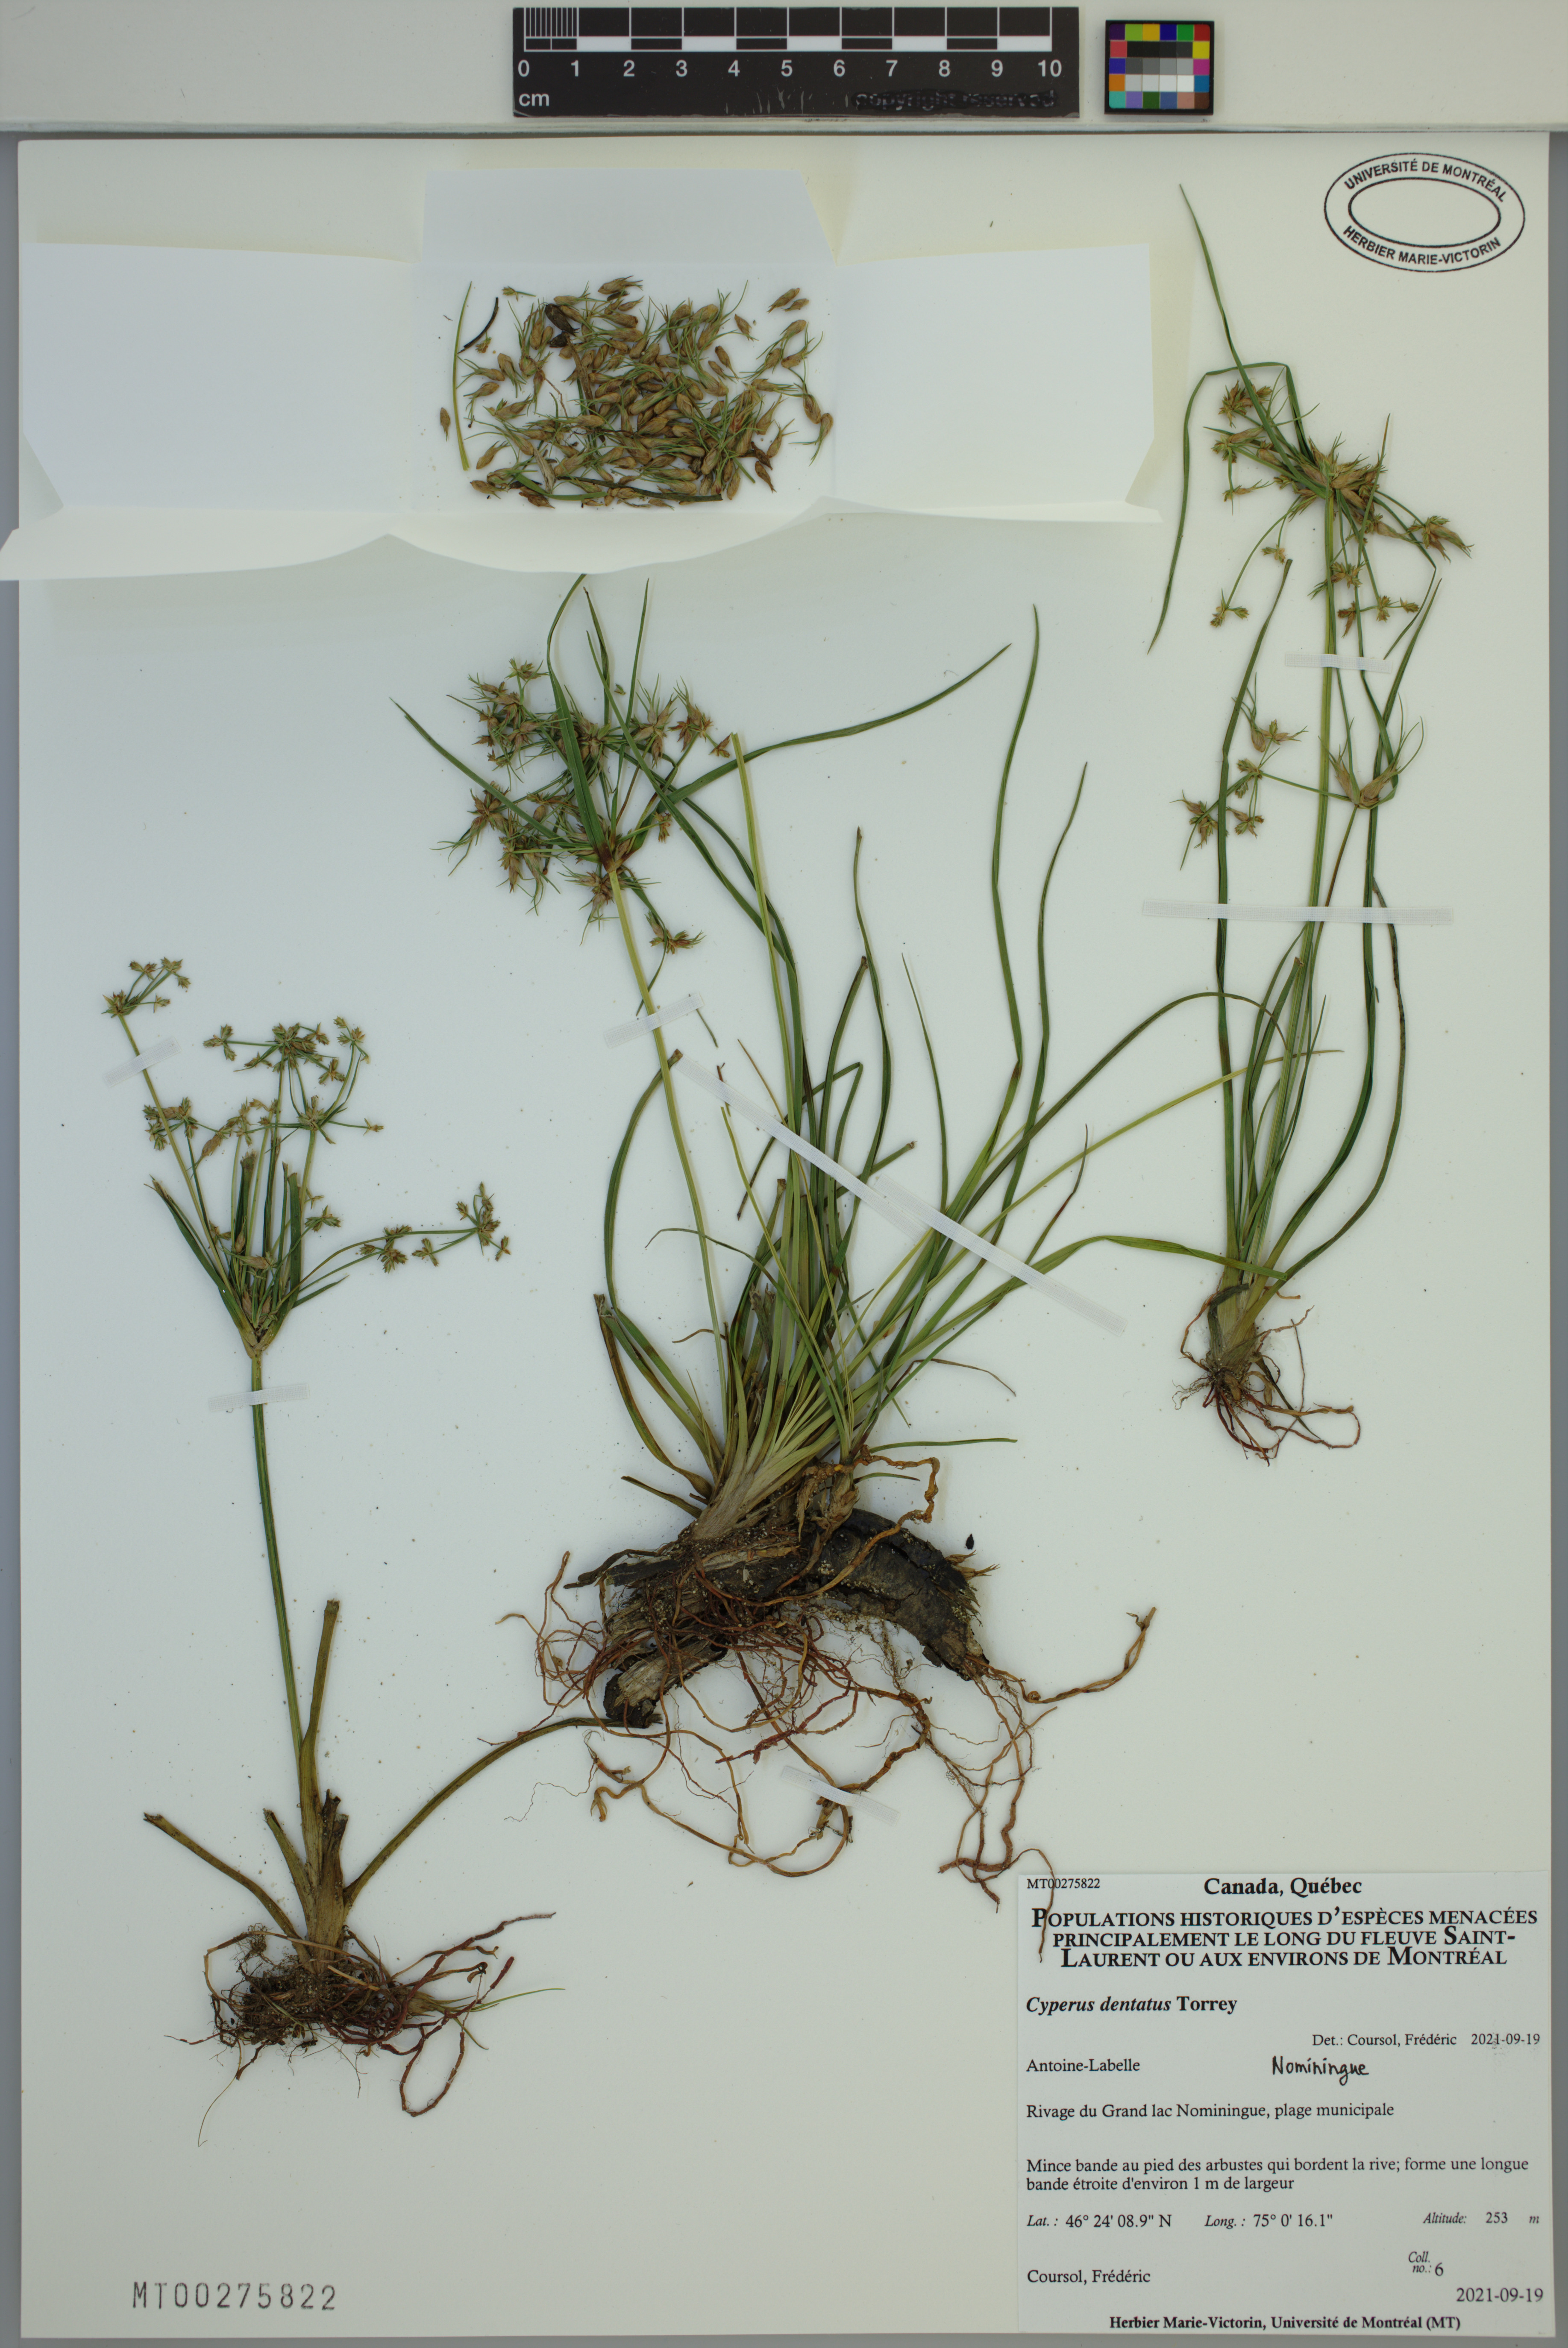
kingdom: Plantae
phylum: Tracheophyta
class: Liliopsida
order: Poales
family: Cyperaceae
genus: Cyperus
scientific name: Cyperus dentatus
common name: Dentate umbrella sedge
